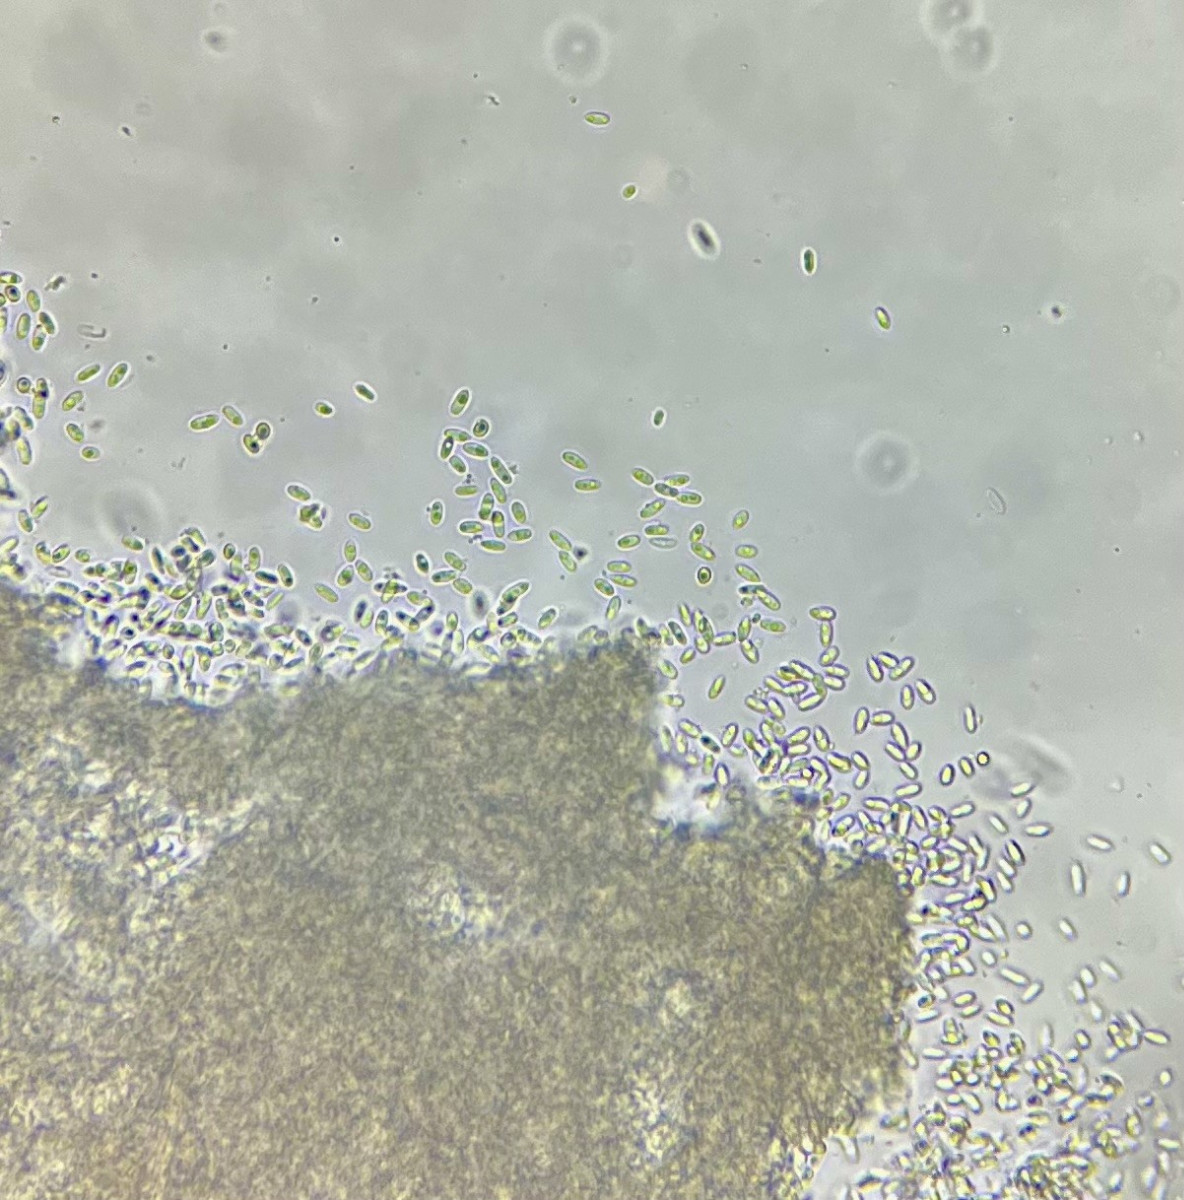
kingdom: Fungi
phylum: Ascomycota
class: Sordariomycetes
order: Hypocreales
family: Nectriaceae
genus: Scolecofusarium
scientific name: Scolecofusarium ciliatum
